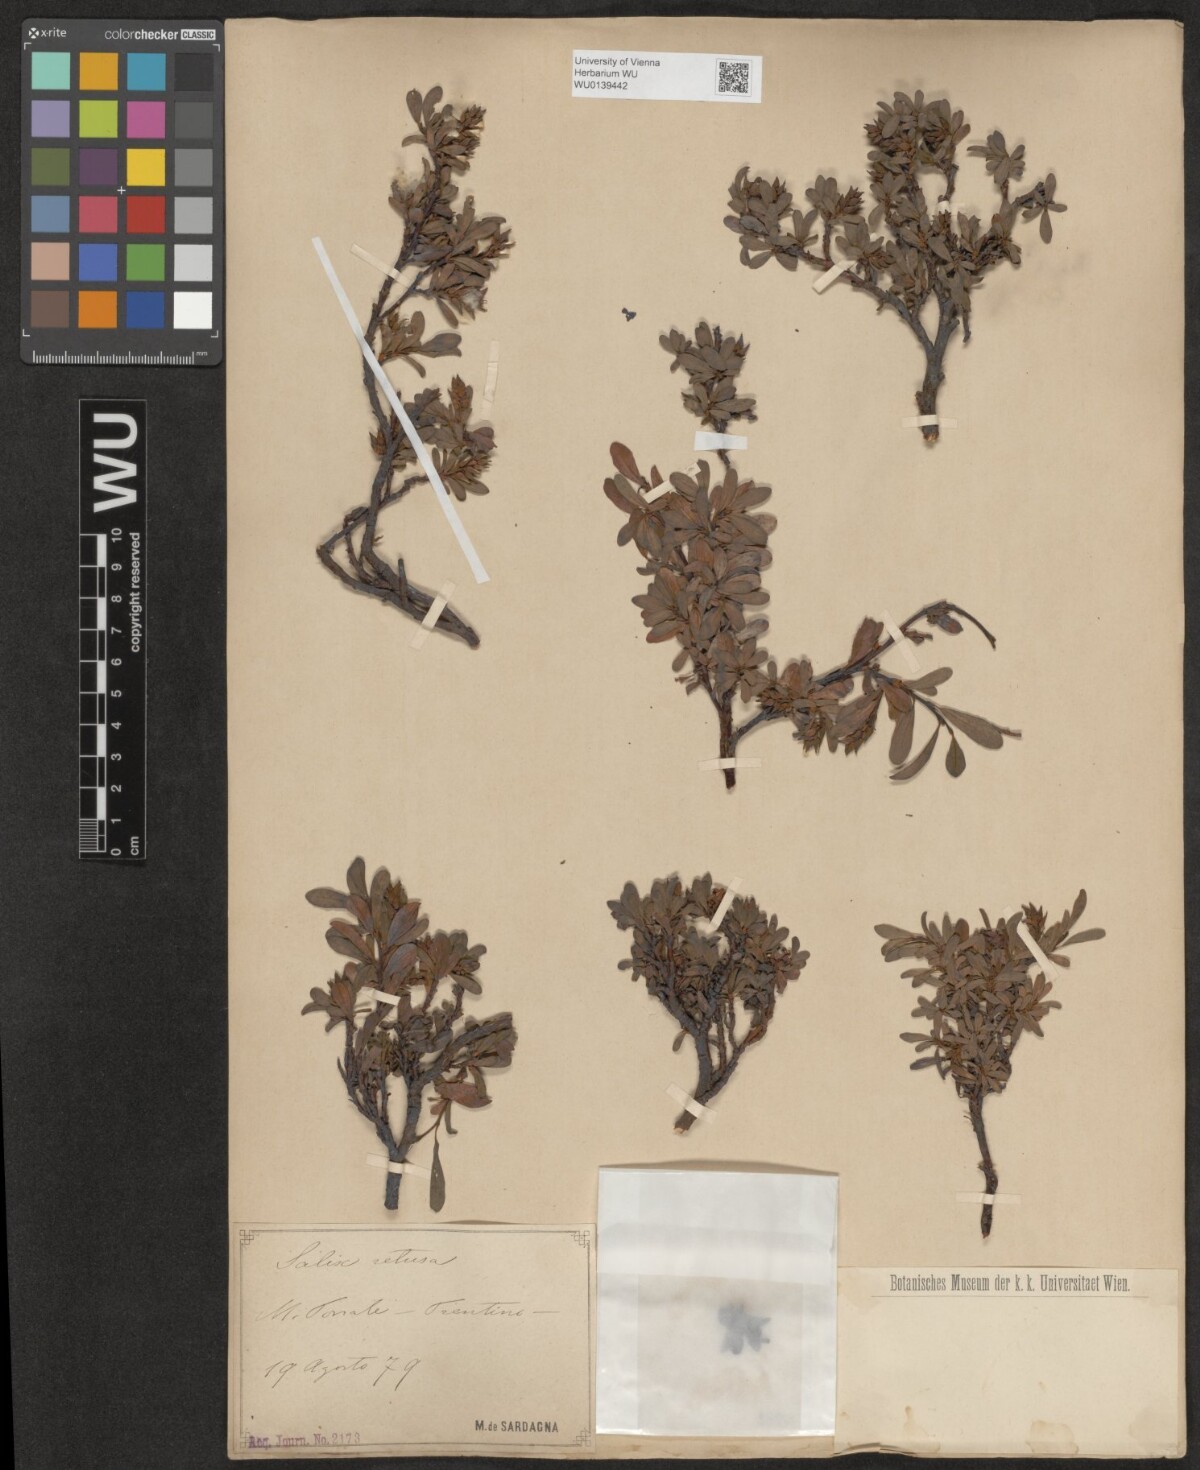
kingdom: Plantae
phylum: Tracheophyta
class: Magnoliopsida
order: Malpighiales
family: Salicaceae
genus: Salix
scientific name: Salix retusa
